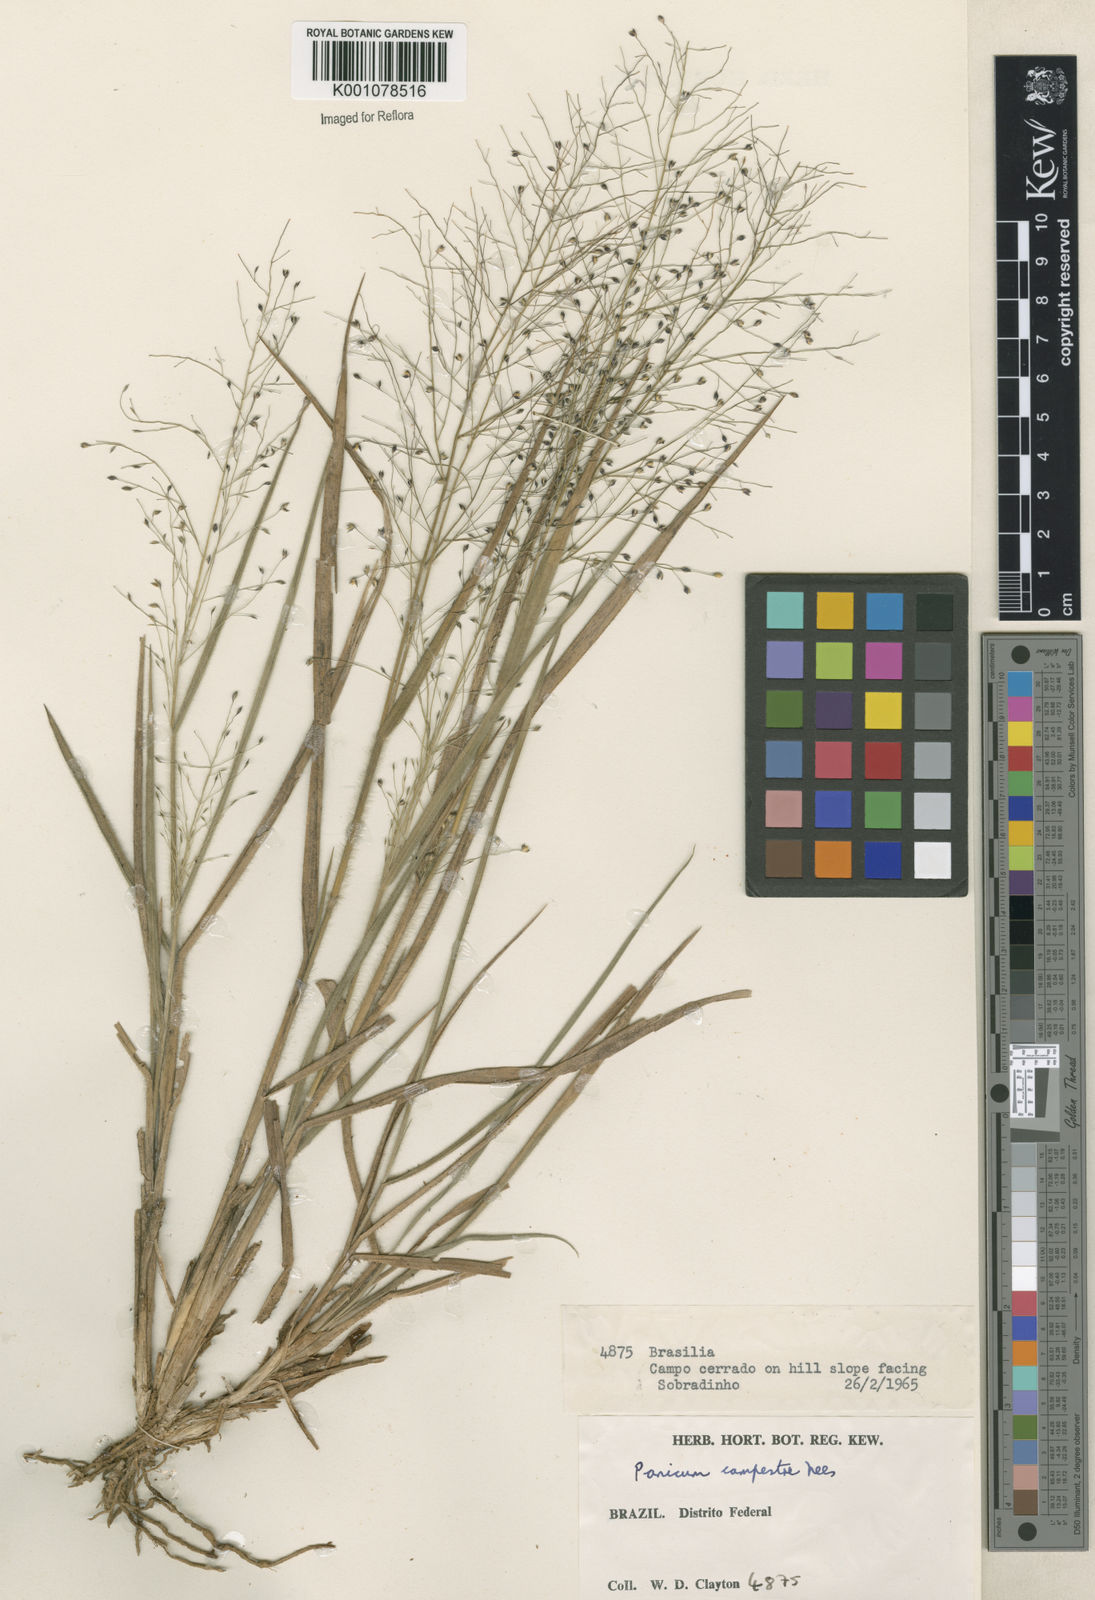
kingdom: Plantae
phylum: Tracheophyta
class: Liliopsida
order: Poales
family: Poaceae
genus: Panicum
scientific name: Panicum campestre
